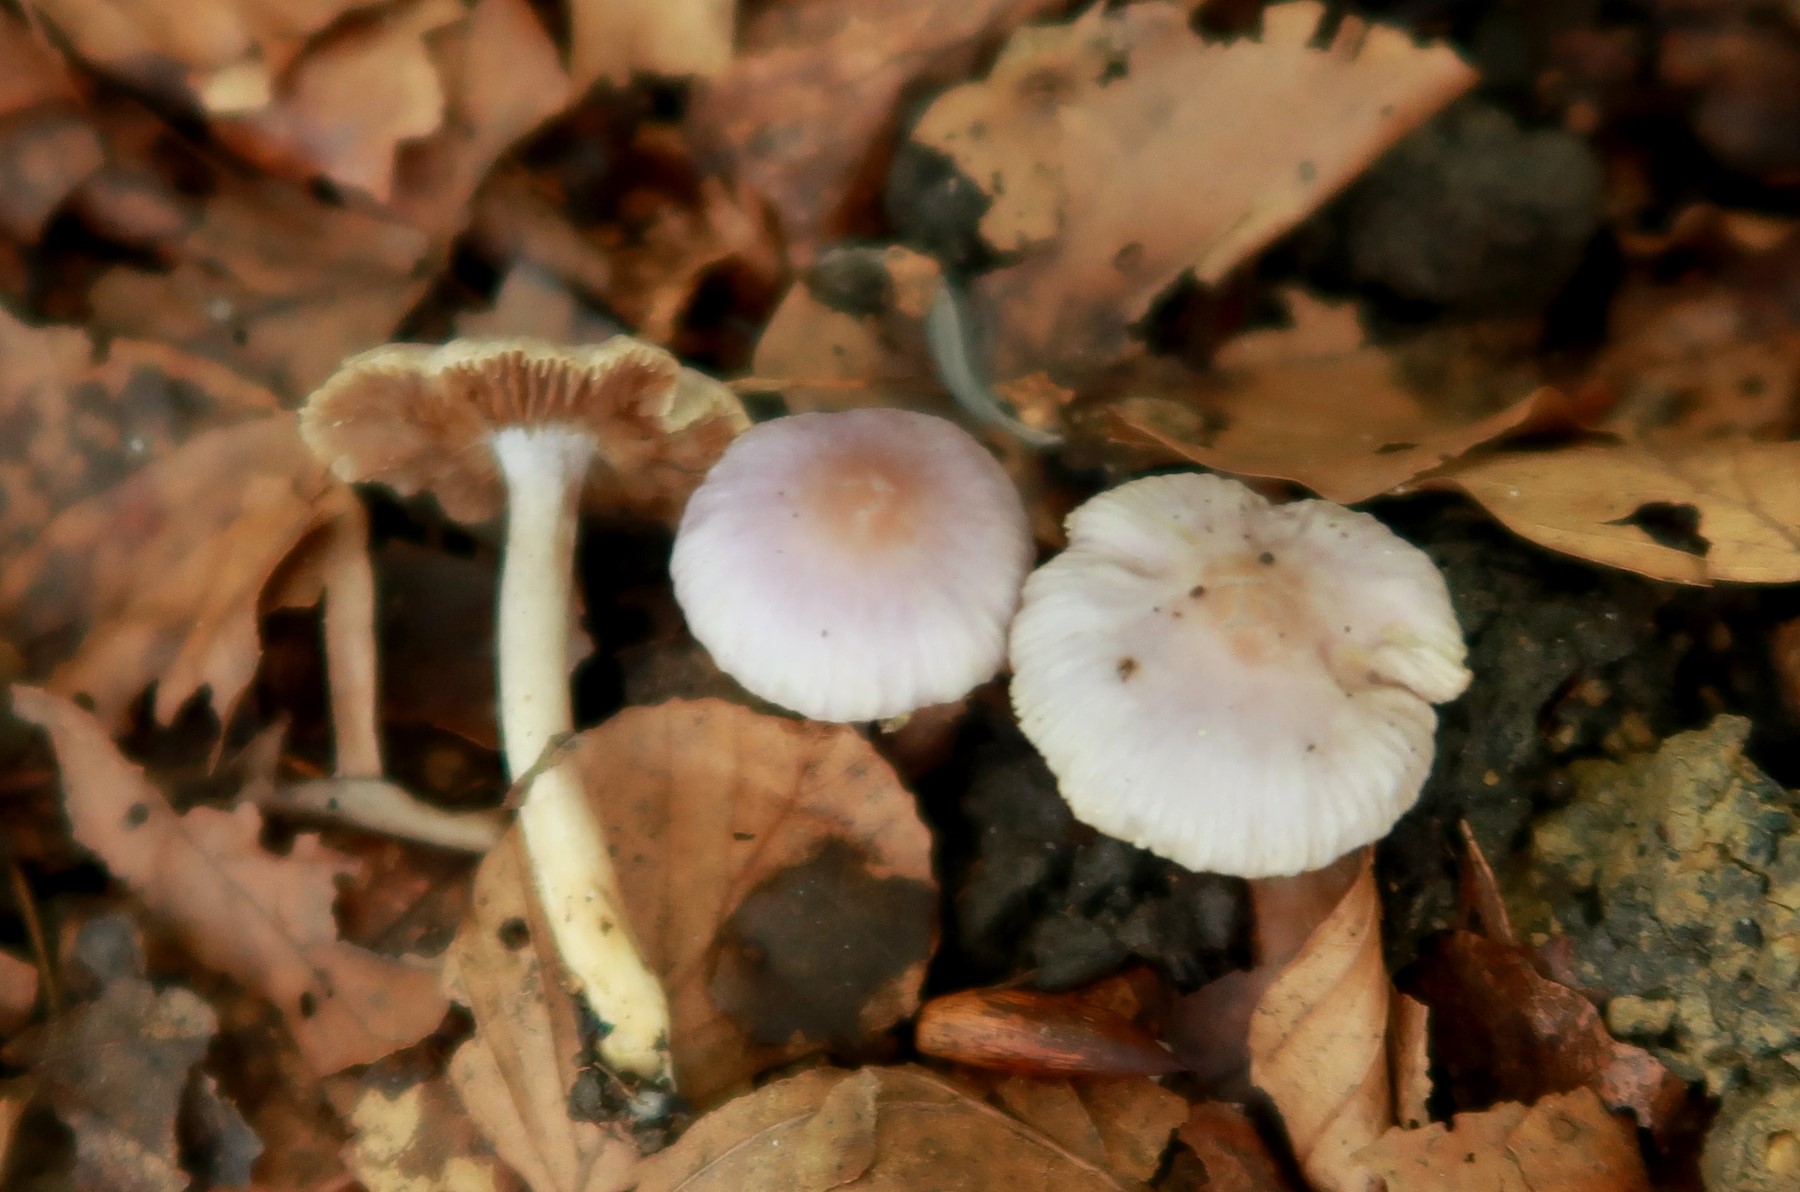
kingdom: Fungi
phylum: Basidiomycota
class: Agaricomycetes
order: Agaricales
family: Inocybaceae
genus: Inocybe
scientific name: Inocybe geophylla
